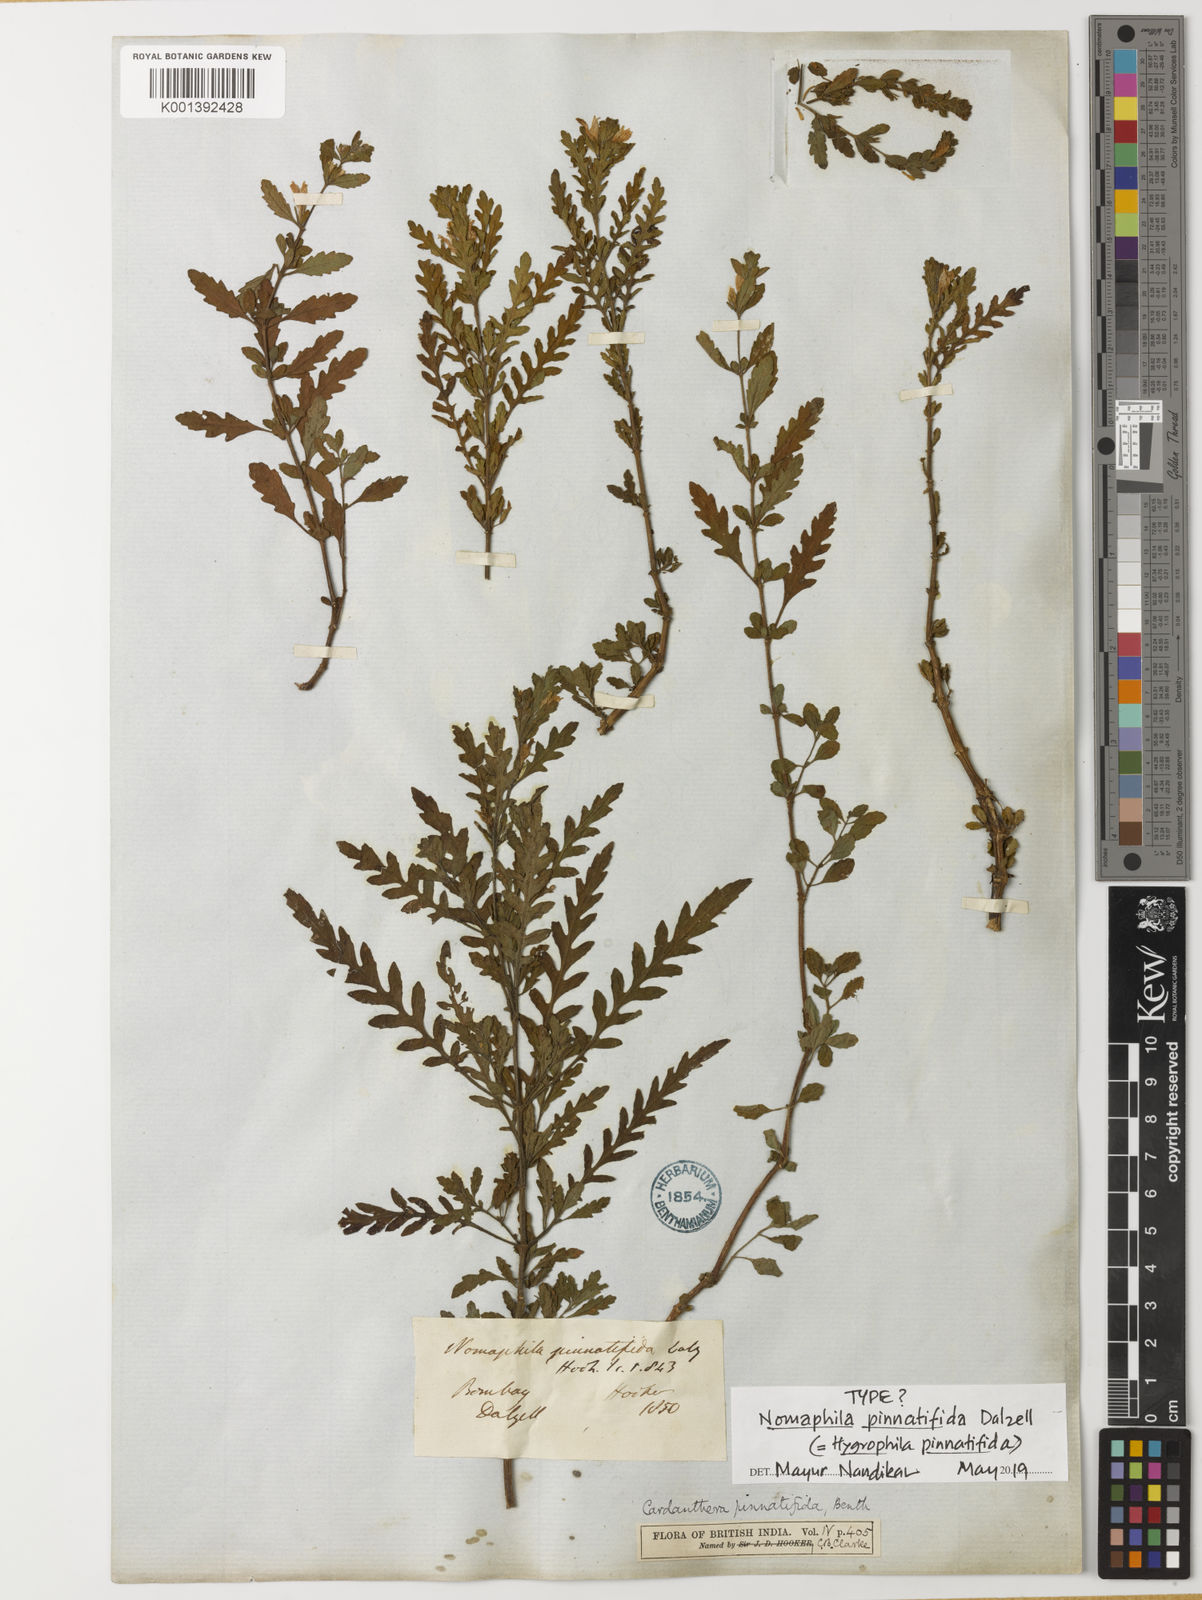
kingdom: Plantae
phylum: Tracheophyta
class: Magnoliopsida
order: Lamiales
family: Acanthaceae
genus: Hygrophila
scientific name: Hygrophila pinnatifida
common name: Indian swampweed
